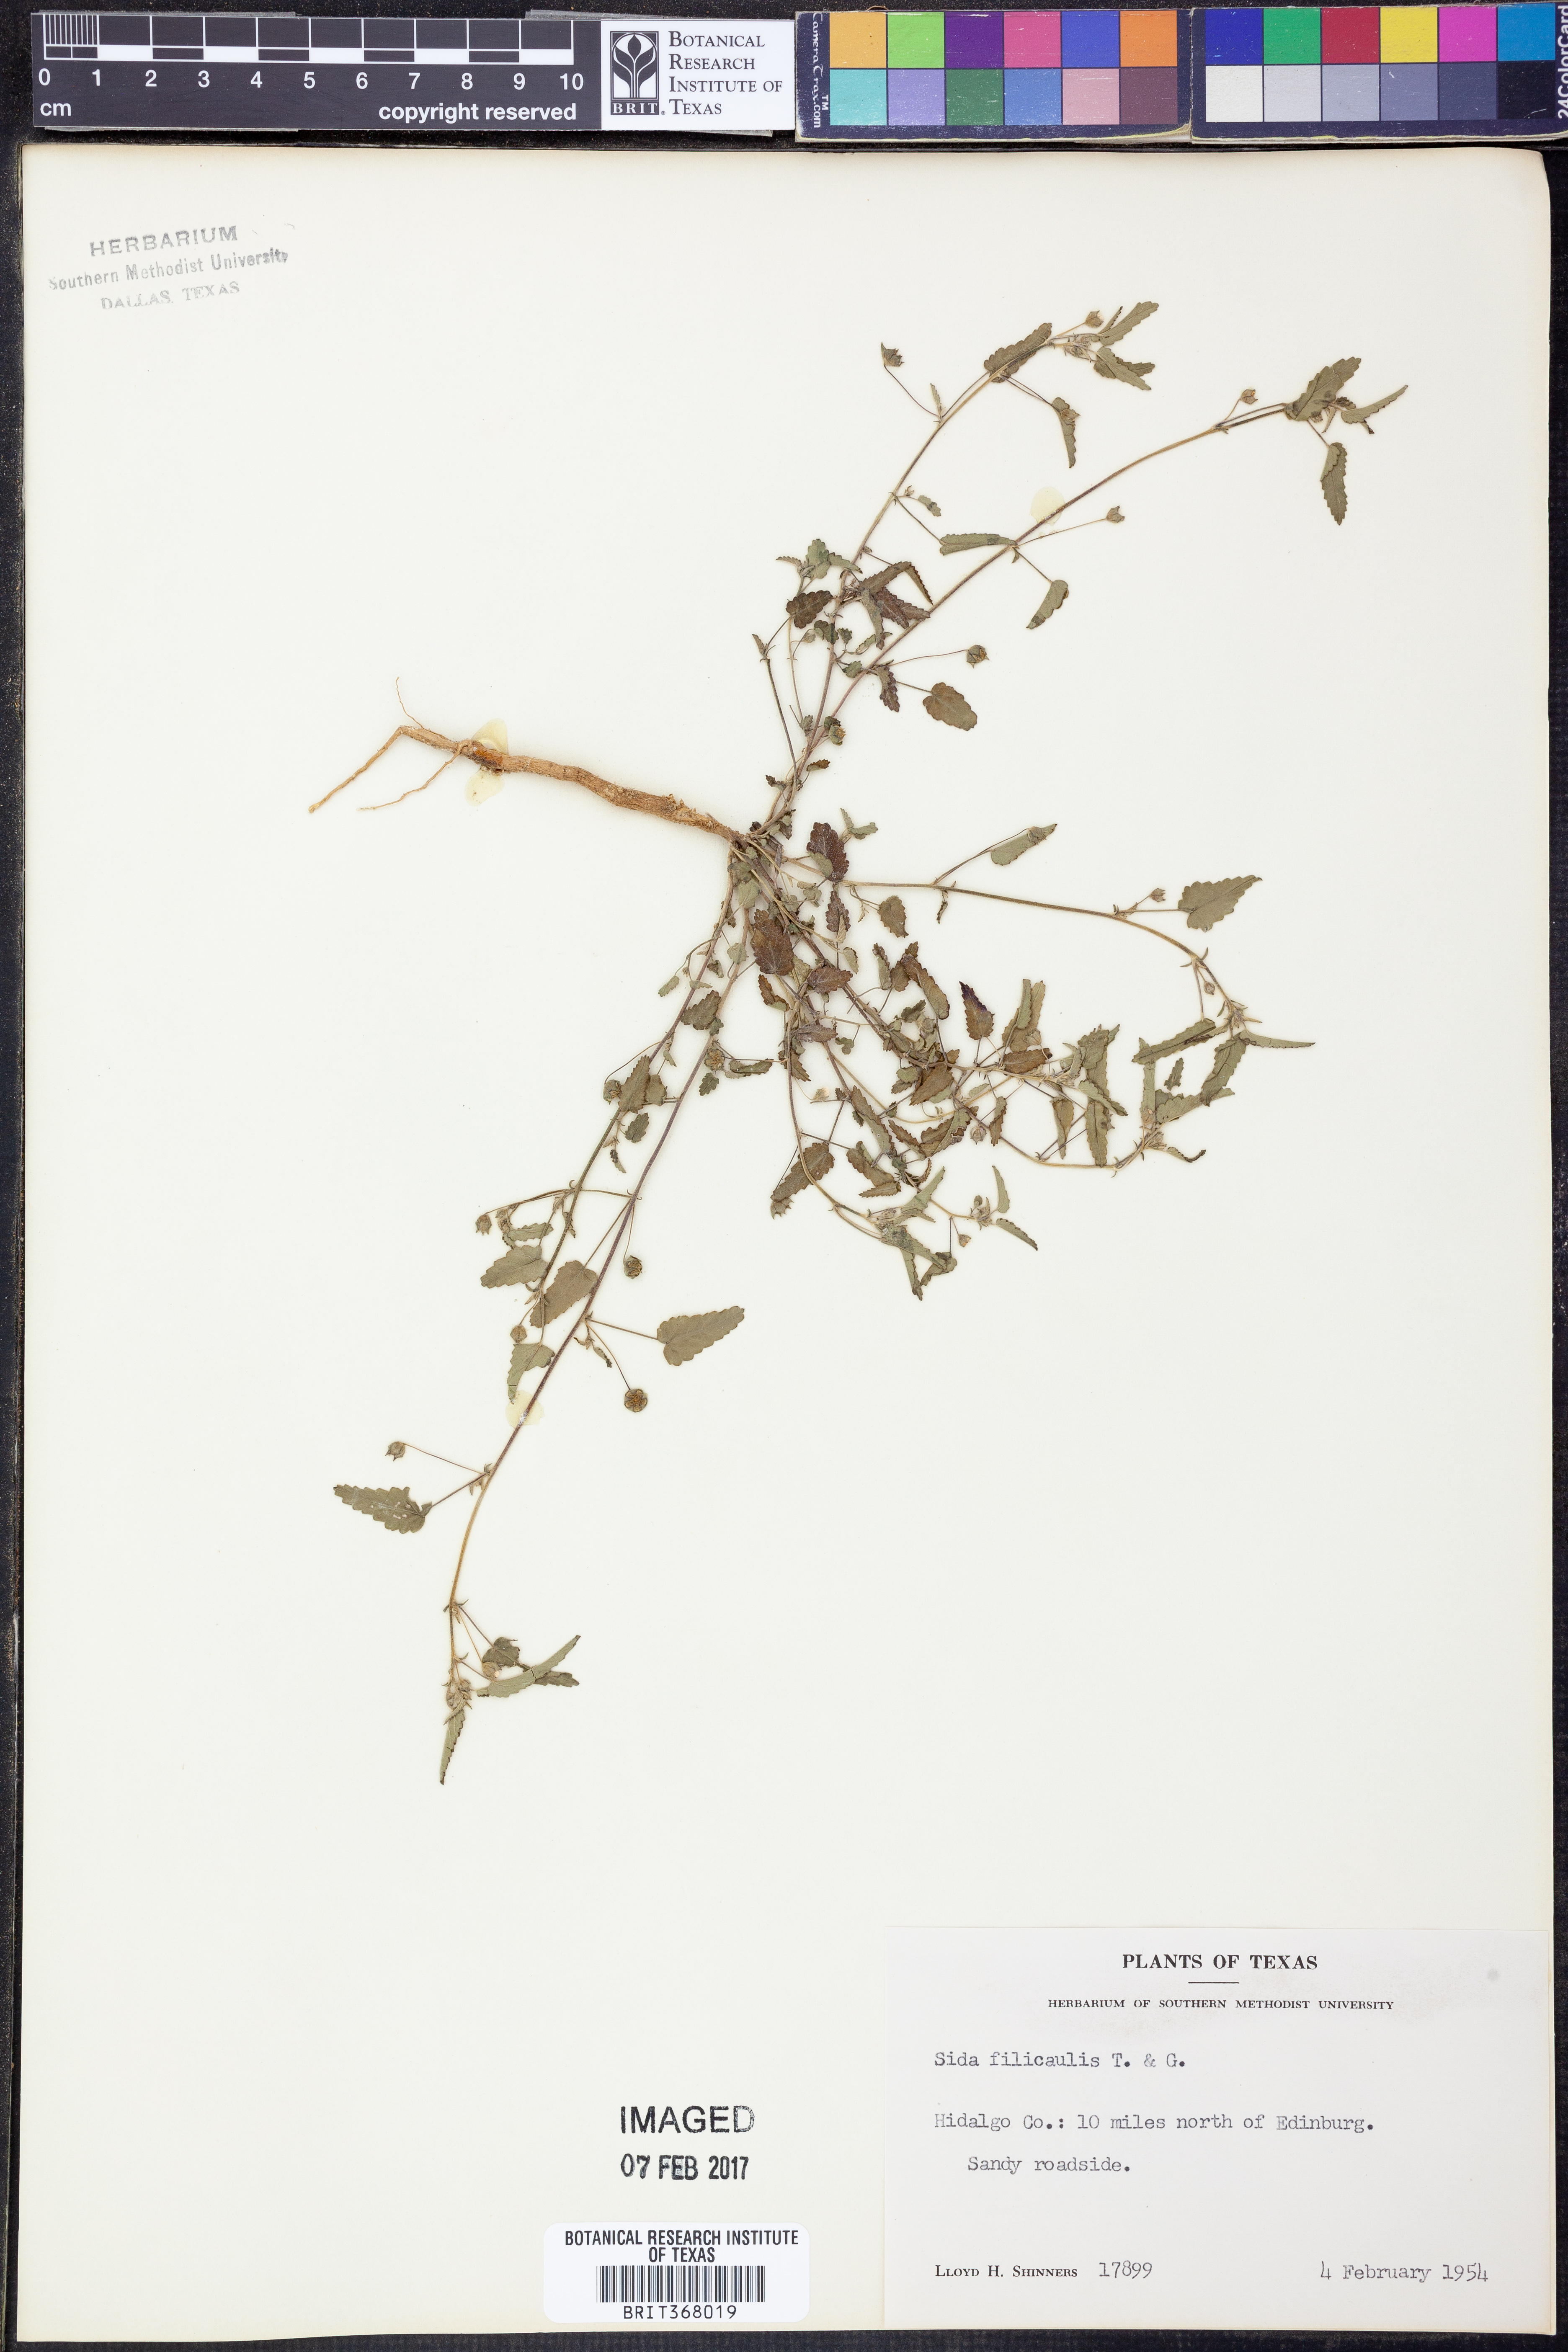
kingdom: Plantae
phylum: Tracheophyta
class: Magnoliopsida
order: Malvales
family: Malvaceae
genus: Sida
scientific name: Sida abutilifolia
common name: Spreading fanpetals
